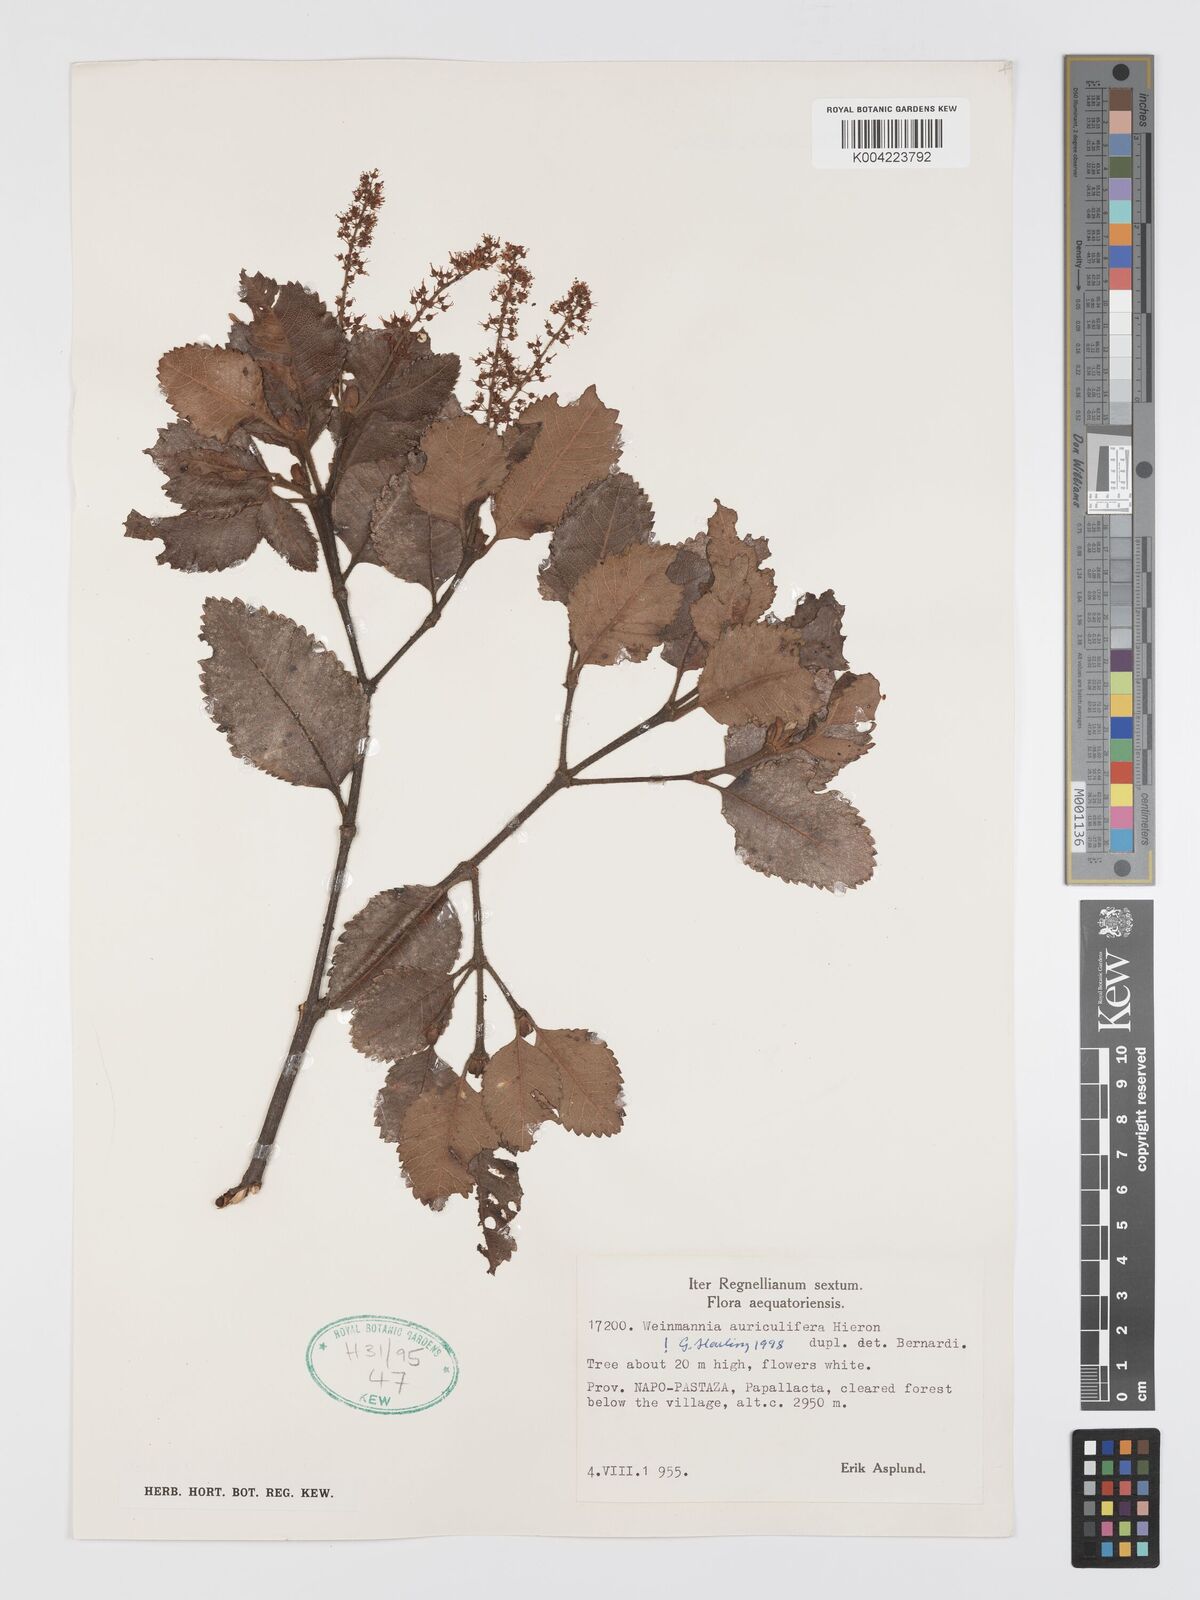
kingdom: Plantae
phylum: Tracheophyta
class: Magnoliopsida
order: Oxalidales
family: Cunoniaceae
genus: Weinmannia
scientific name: Weinmannia cordata
